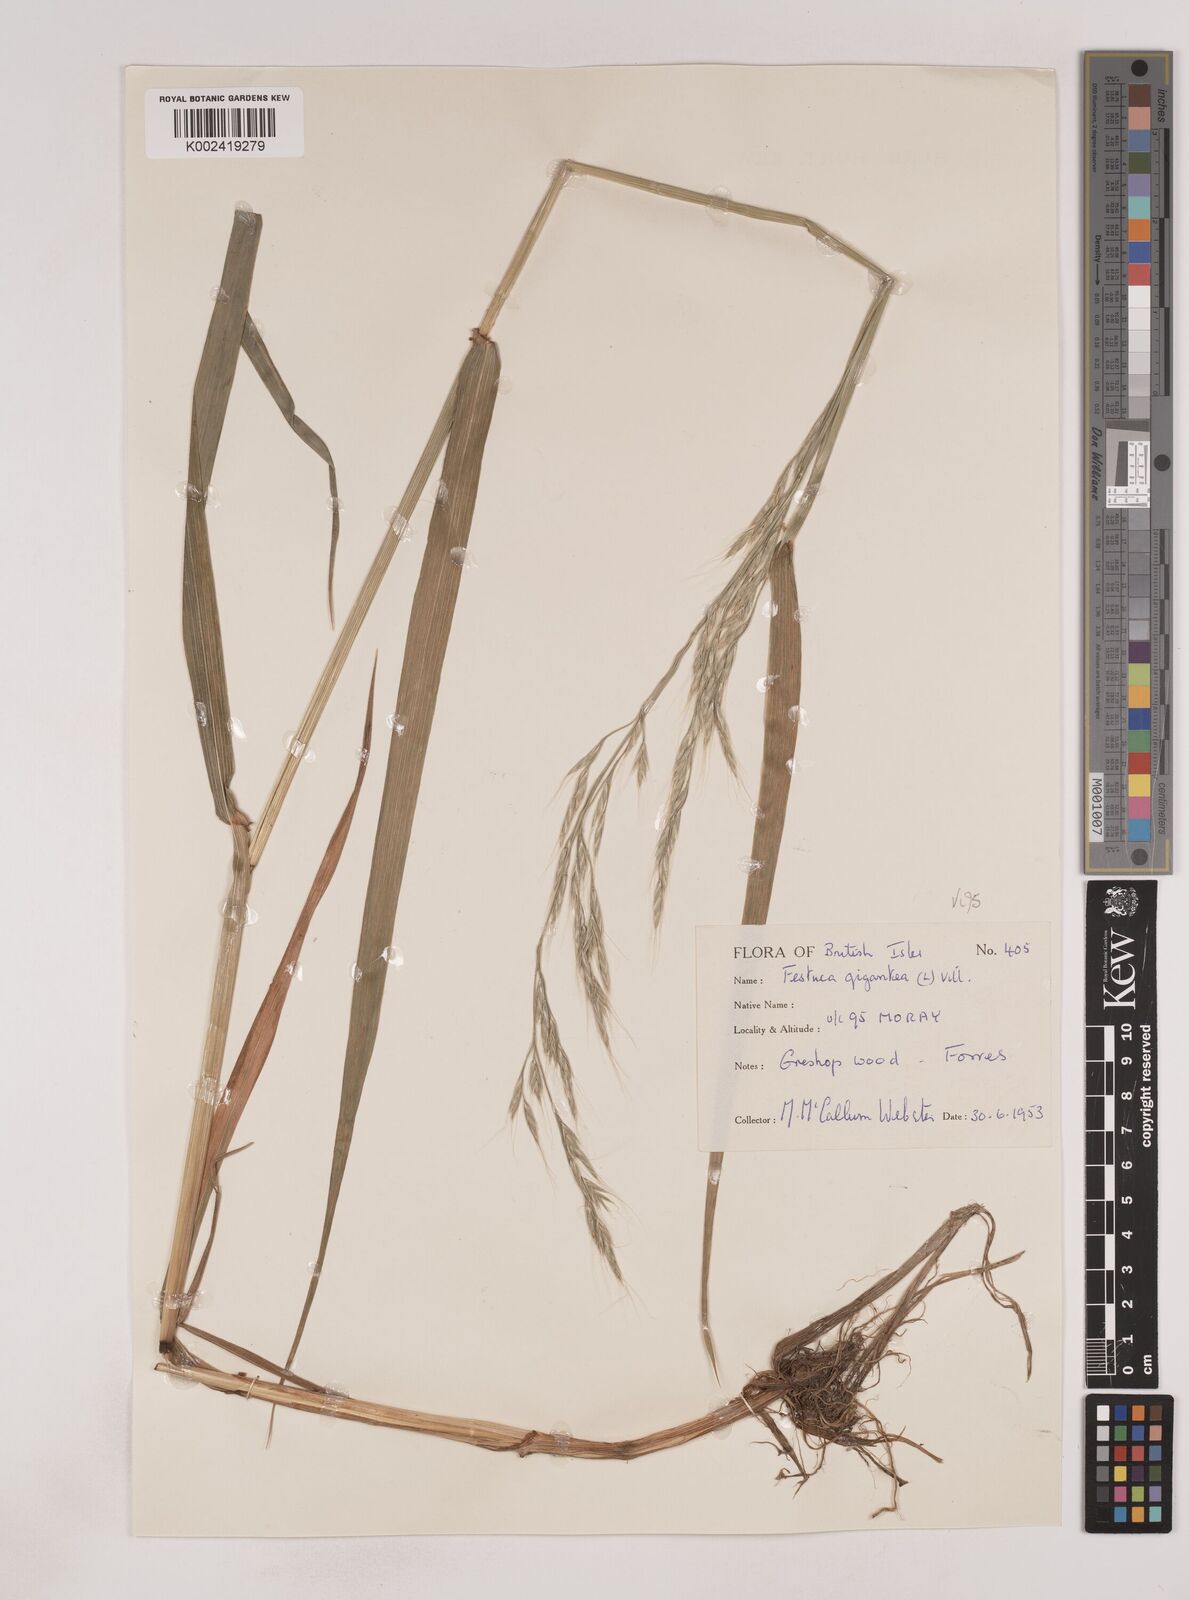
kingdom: Plantae
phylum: Tracheophyta
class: Liliopsida
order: Poales
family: Poaceae
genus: Lolium
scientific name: Lolium giganteum
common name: Giant fescue
